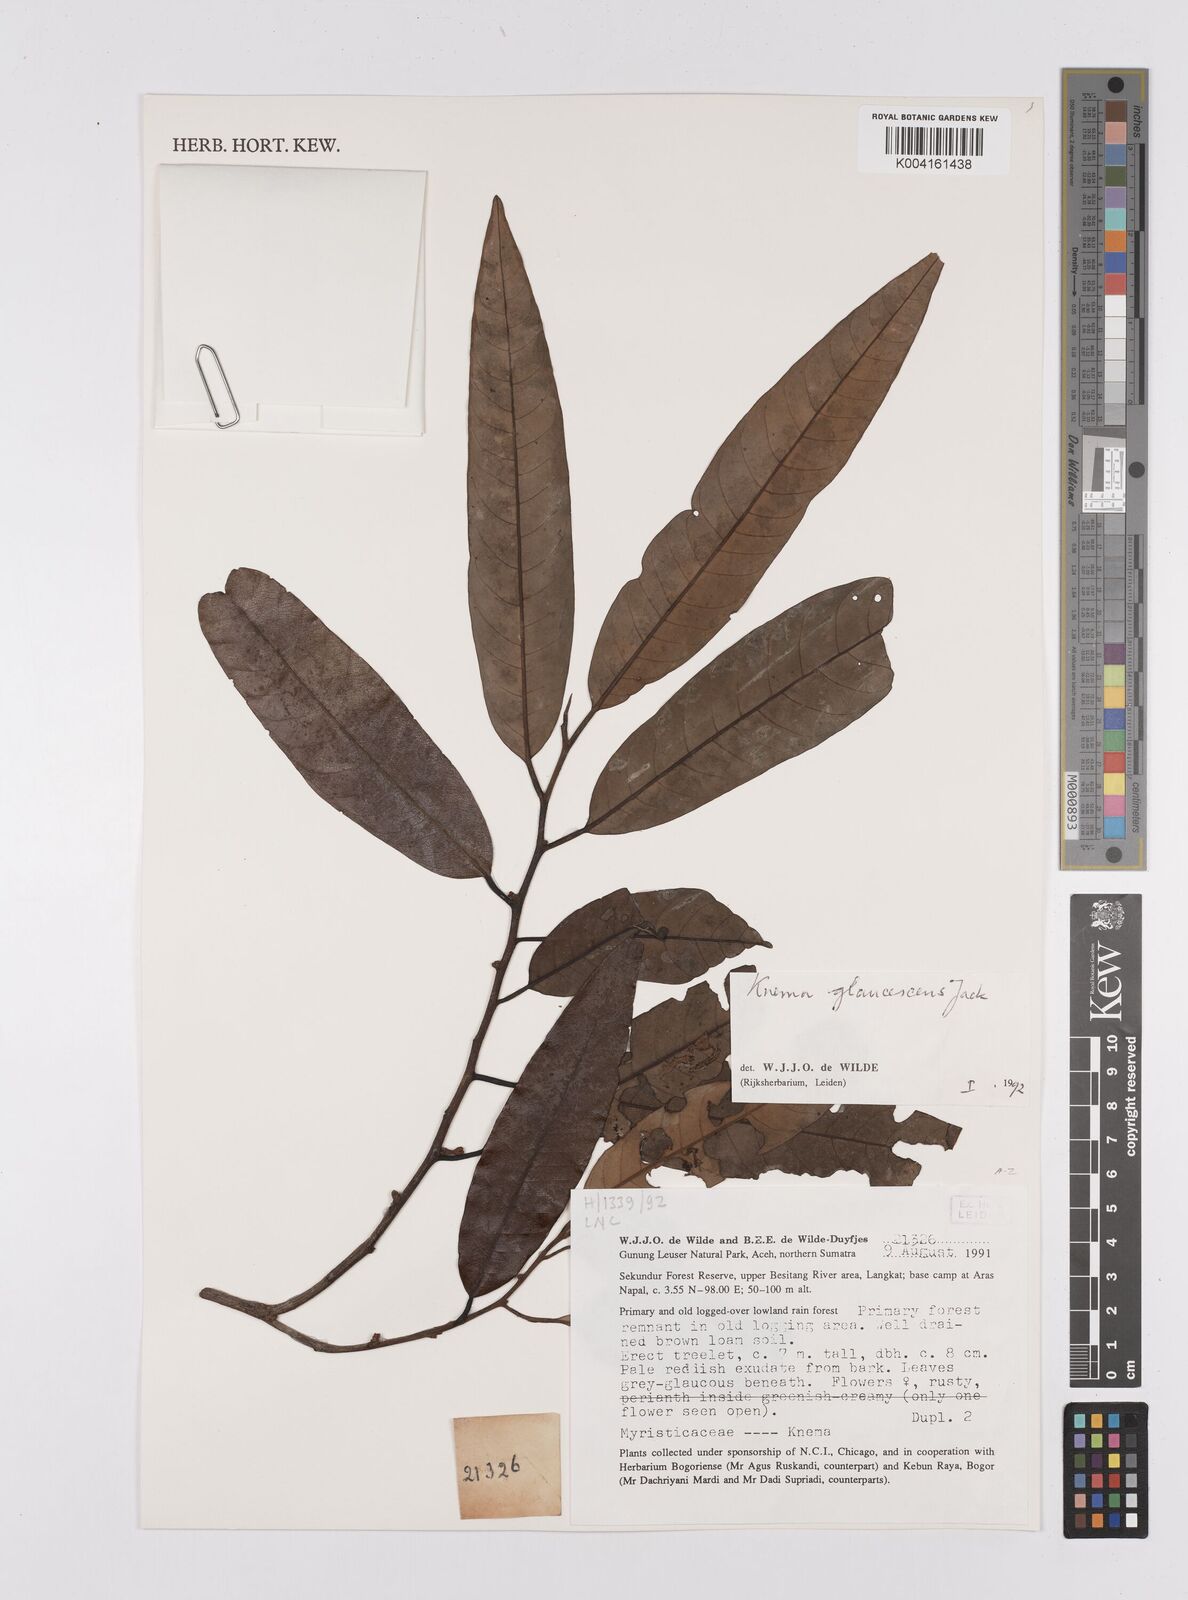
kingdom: Plantae
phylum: Tracheophyta
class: Magnoliopsida
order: Magnoliales
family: Myristicaceae
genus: Knema
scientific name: Knema
